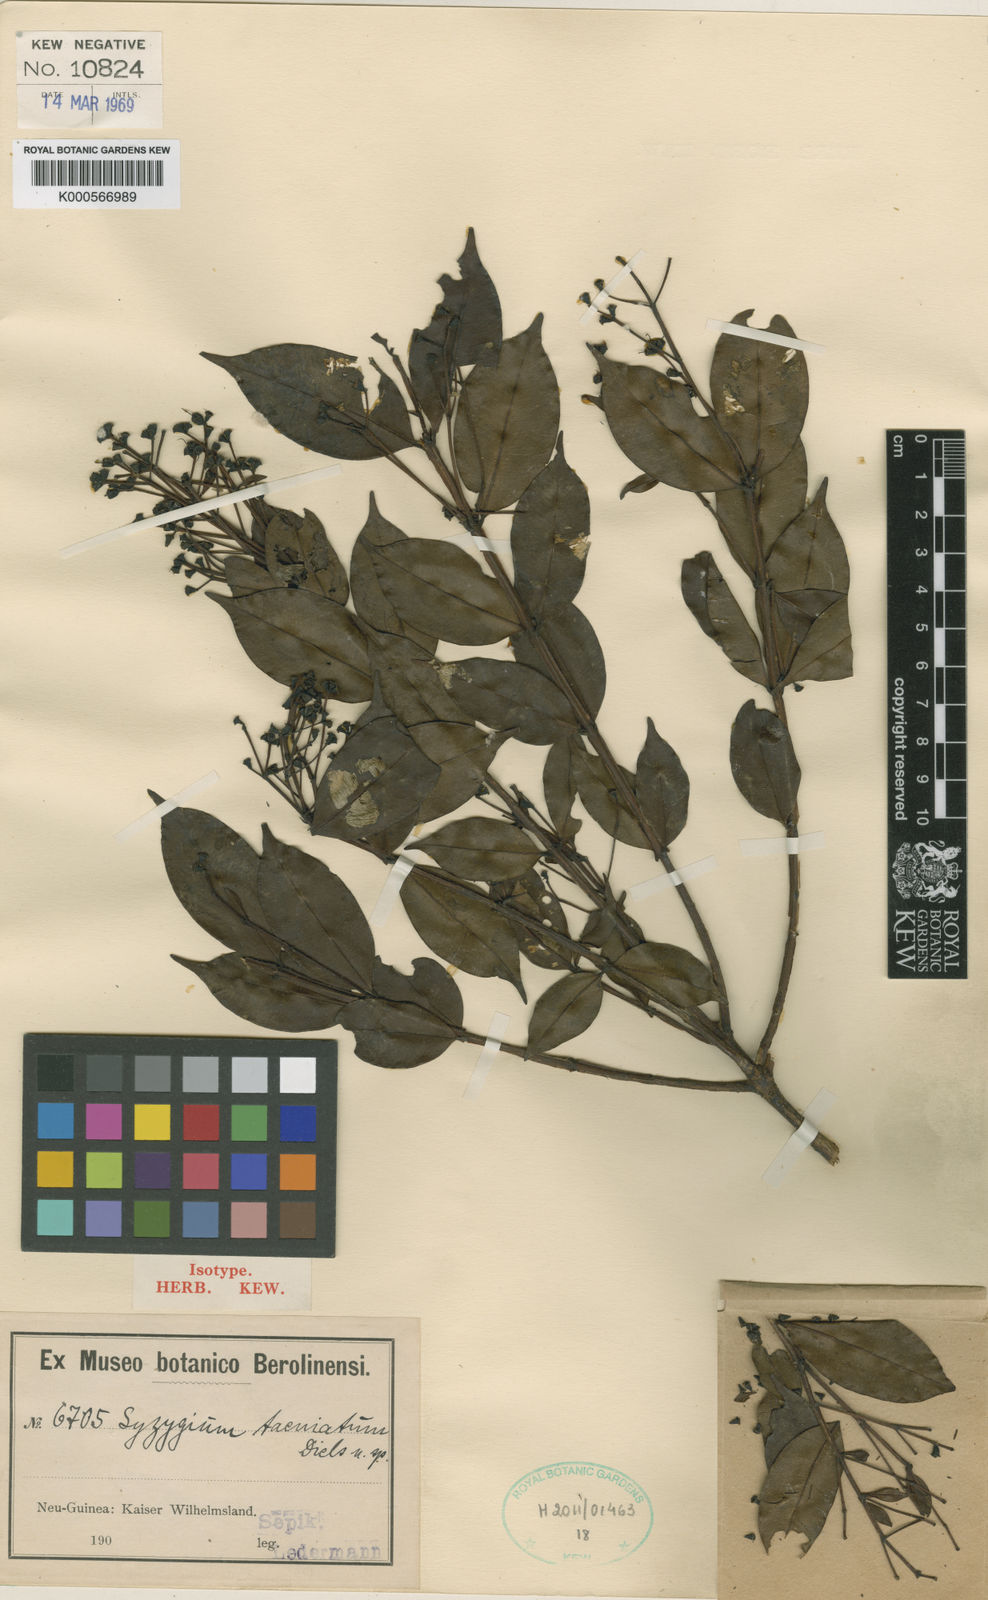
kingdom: Plantae
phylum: Tracheophyta
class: Magnoliopsida
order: Myrtales
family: Myrtaceae
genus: Syzygium
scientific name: Syzygium taeniatum
